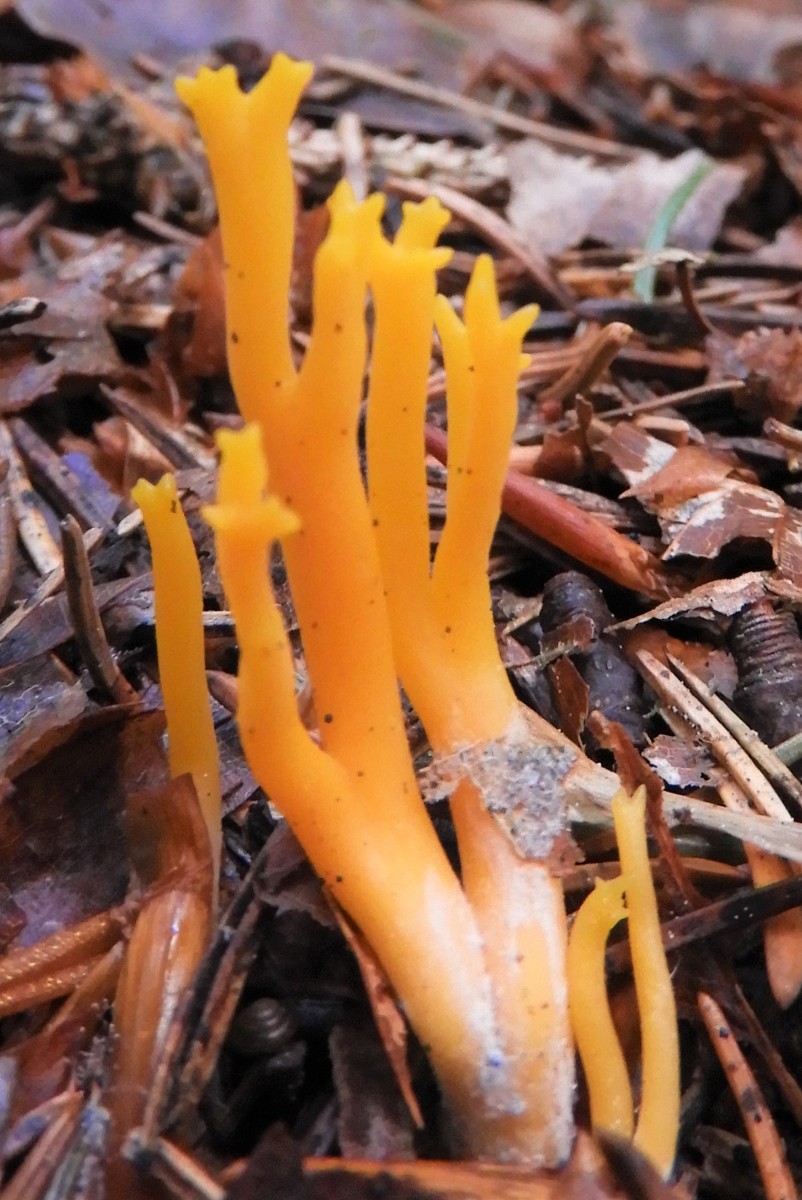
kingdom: Fungi
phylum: Basidiomycota
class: Dacrymycetes
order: Dacrymycetales
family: Dacrymycetaceae
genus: Calocera
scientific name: Calocera viscosa
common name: almindelig guldgaffel
